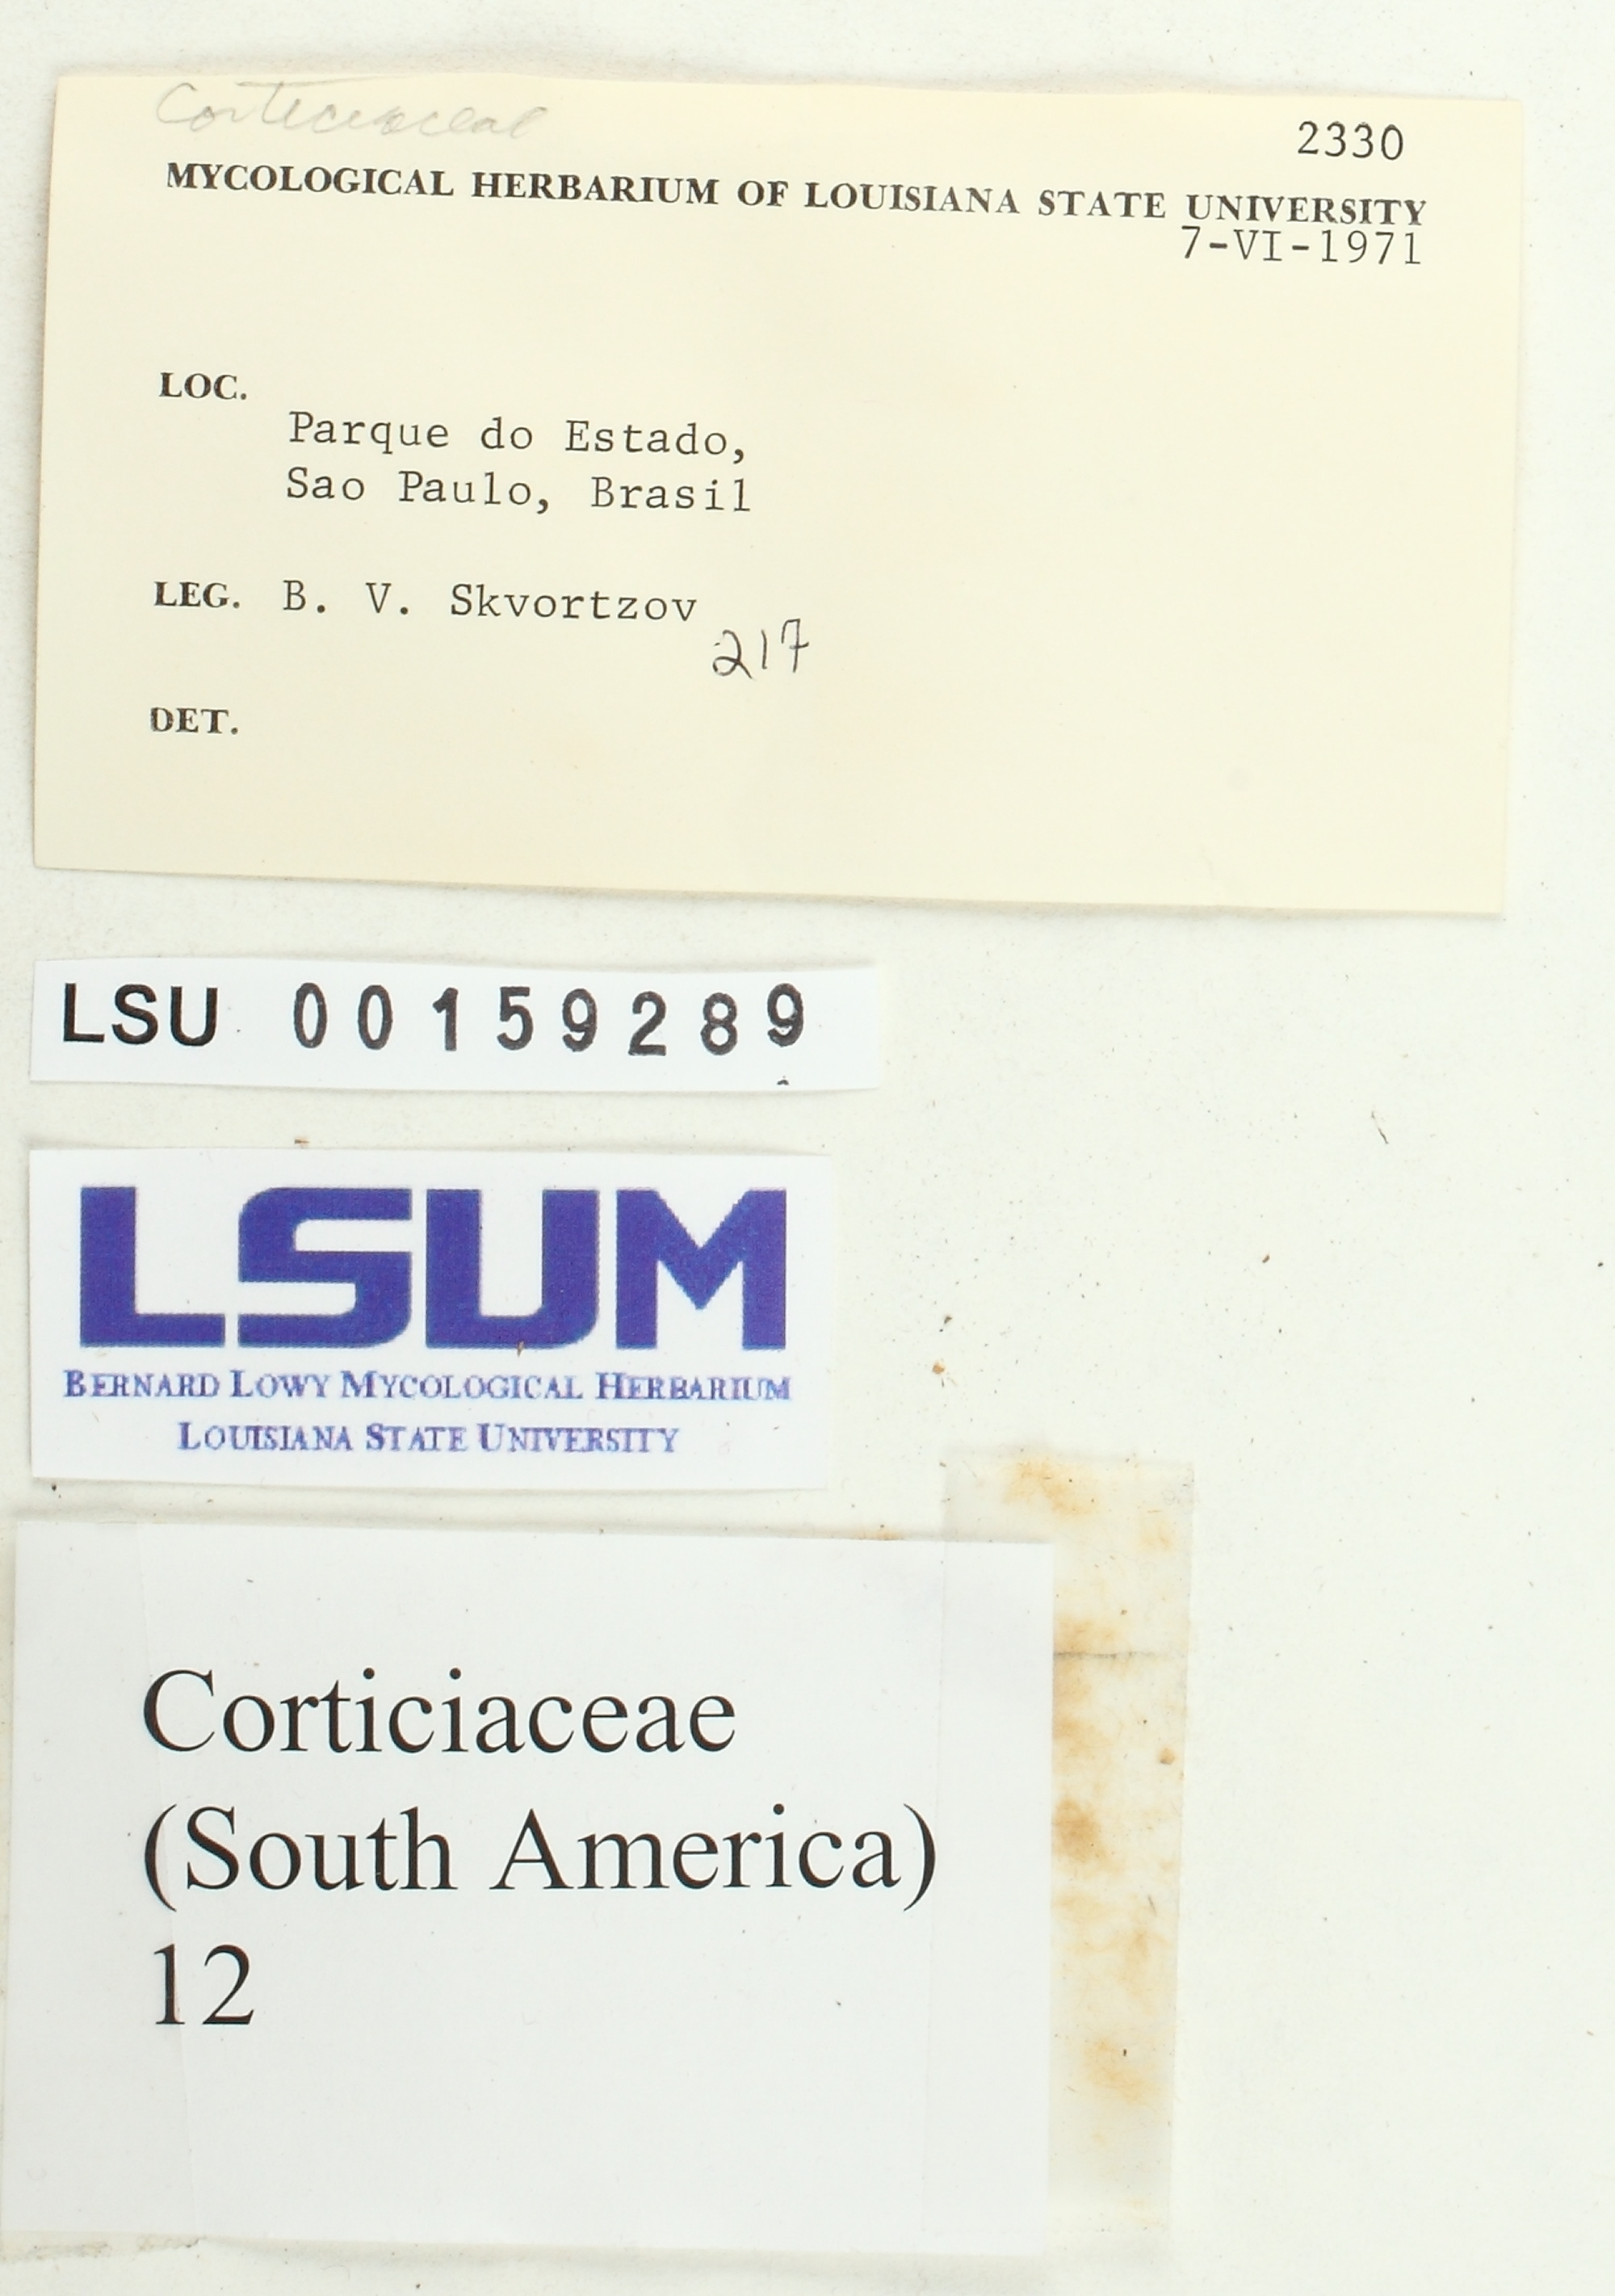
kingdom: Fungi
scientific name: Fungi
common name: Fungi
